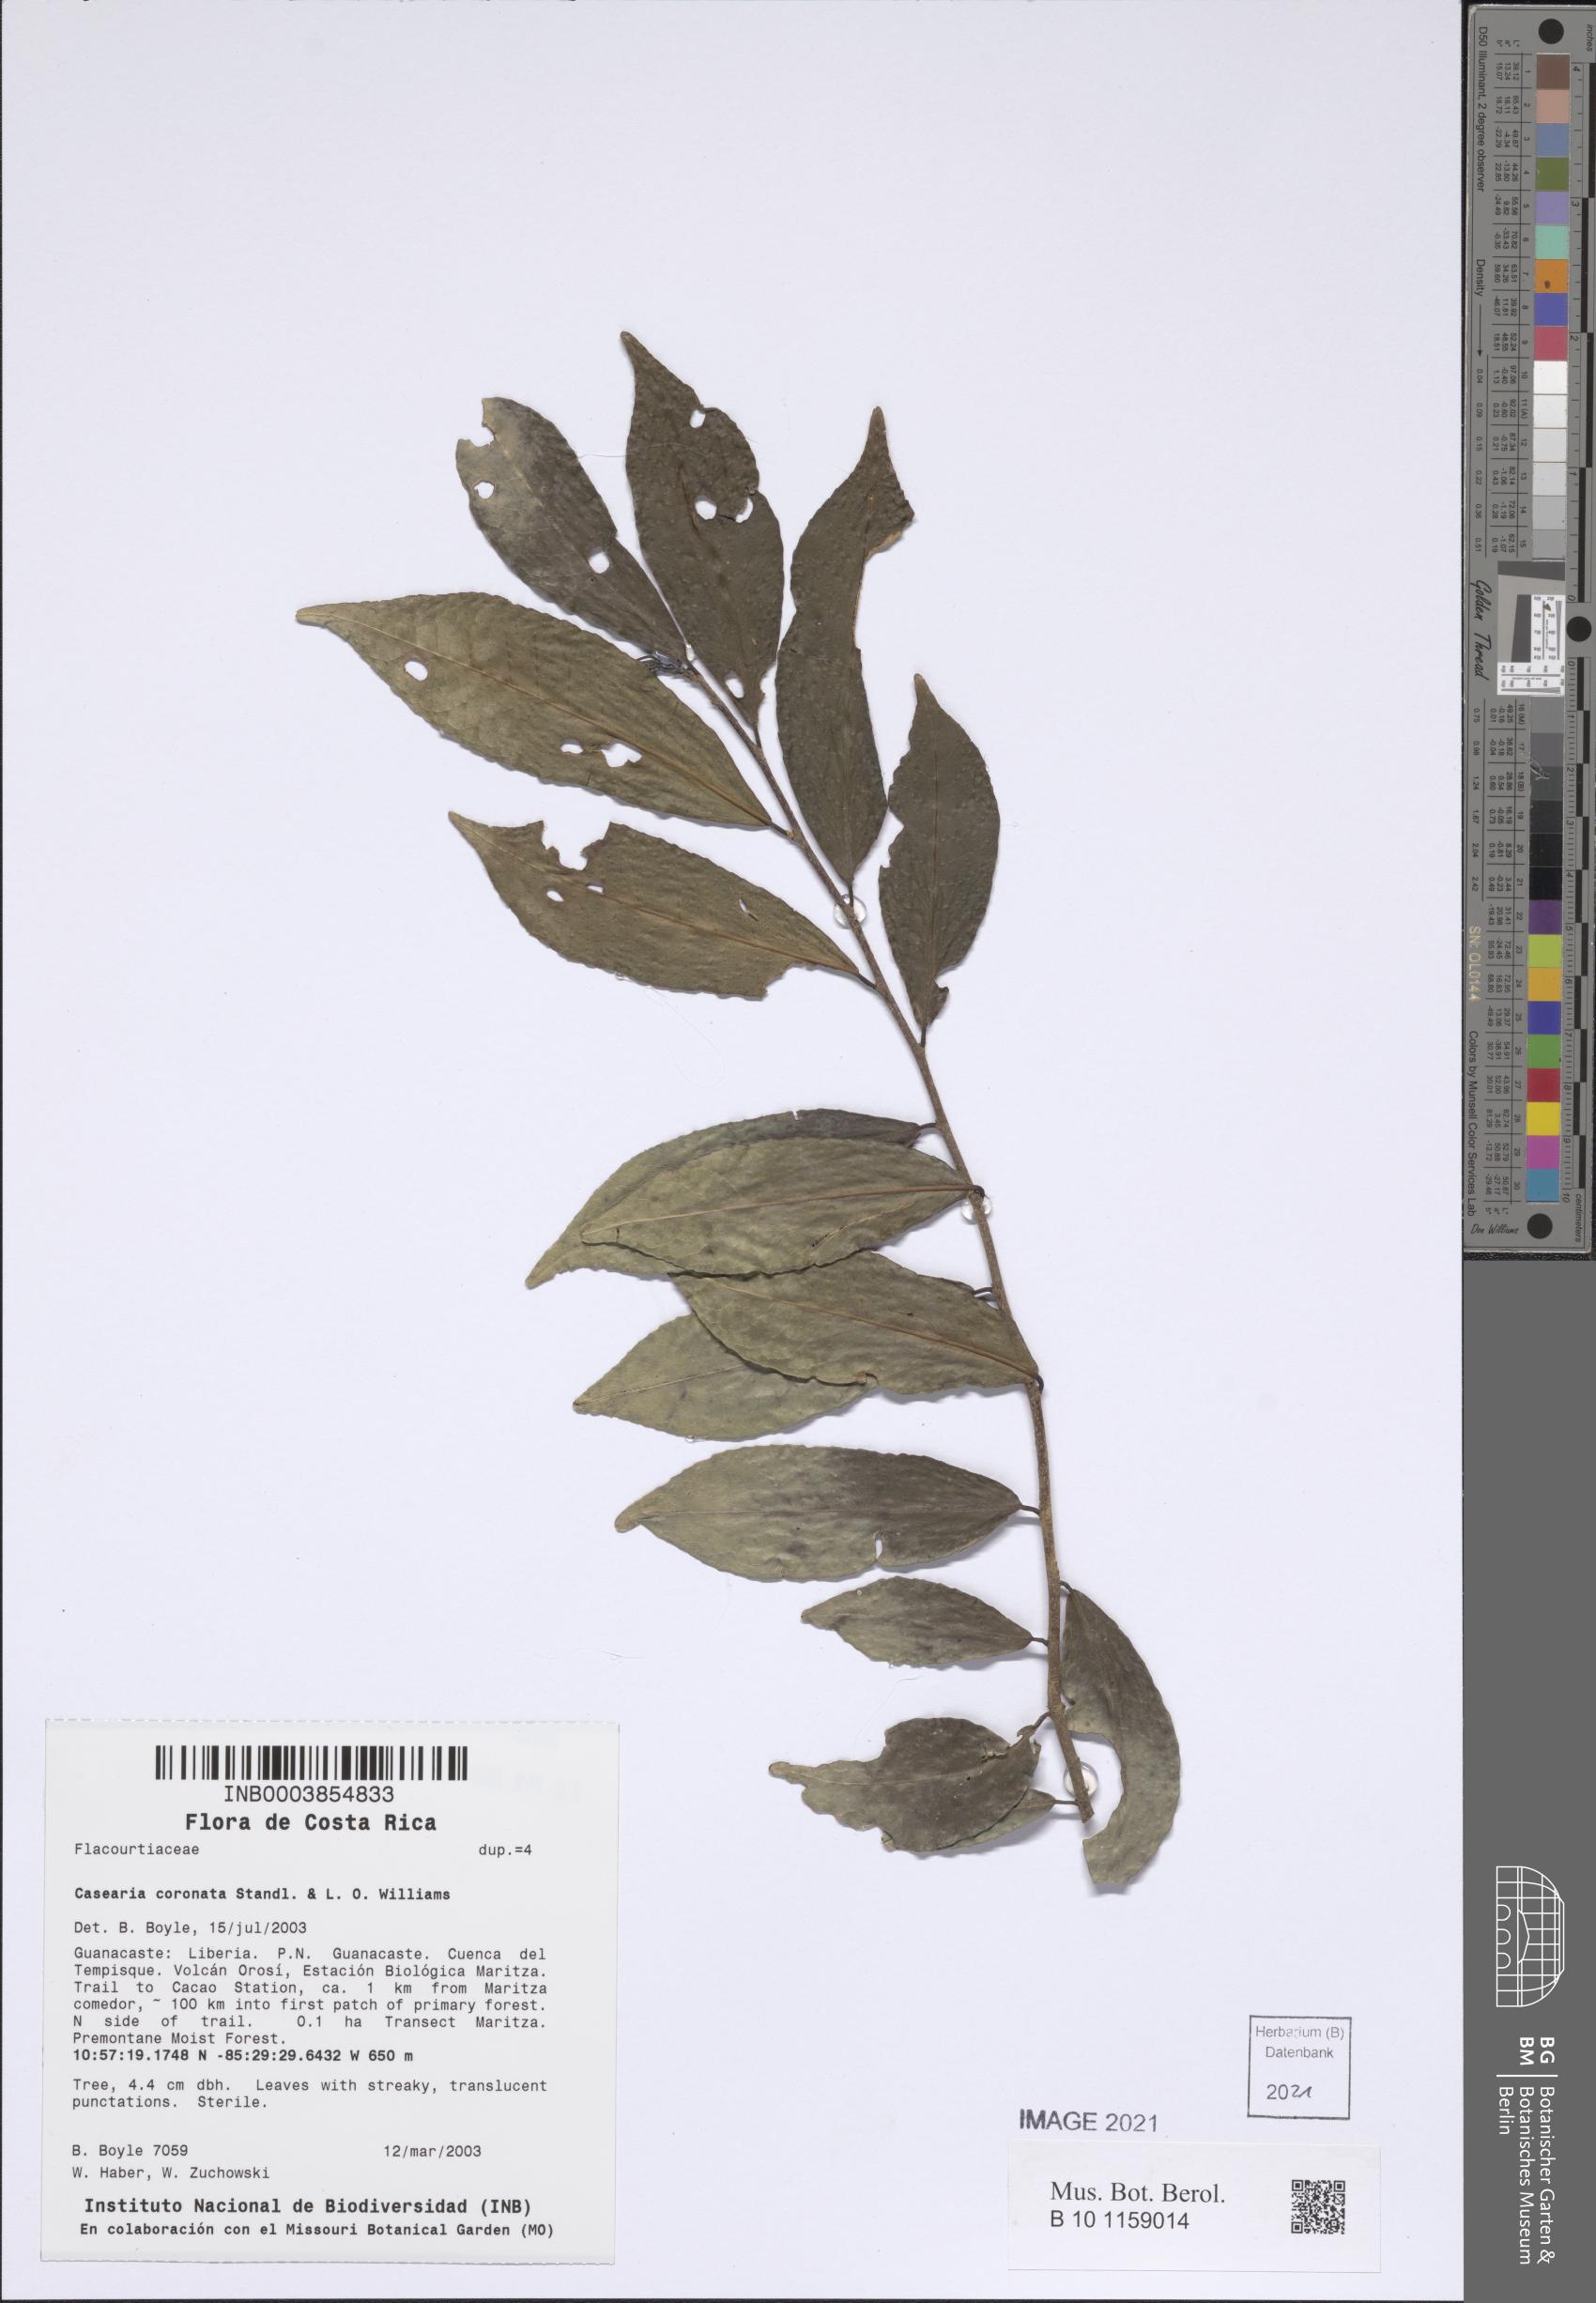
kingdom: Plantae
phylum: Tracheophyta
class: Magnoliopsida
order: Malpighiales
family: Salicaceae
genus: Casearia
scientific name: Casearia thamnia
